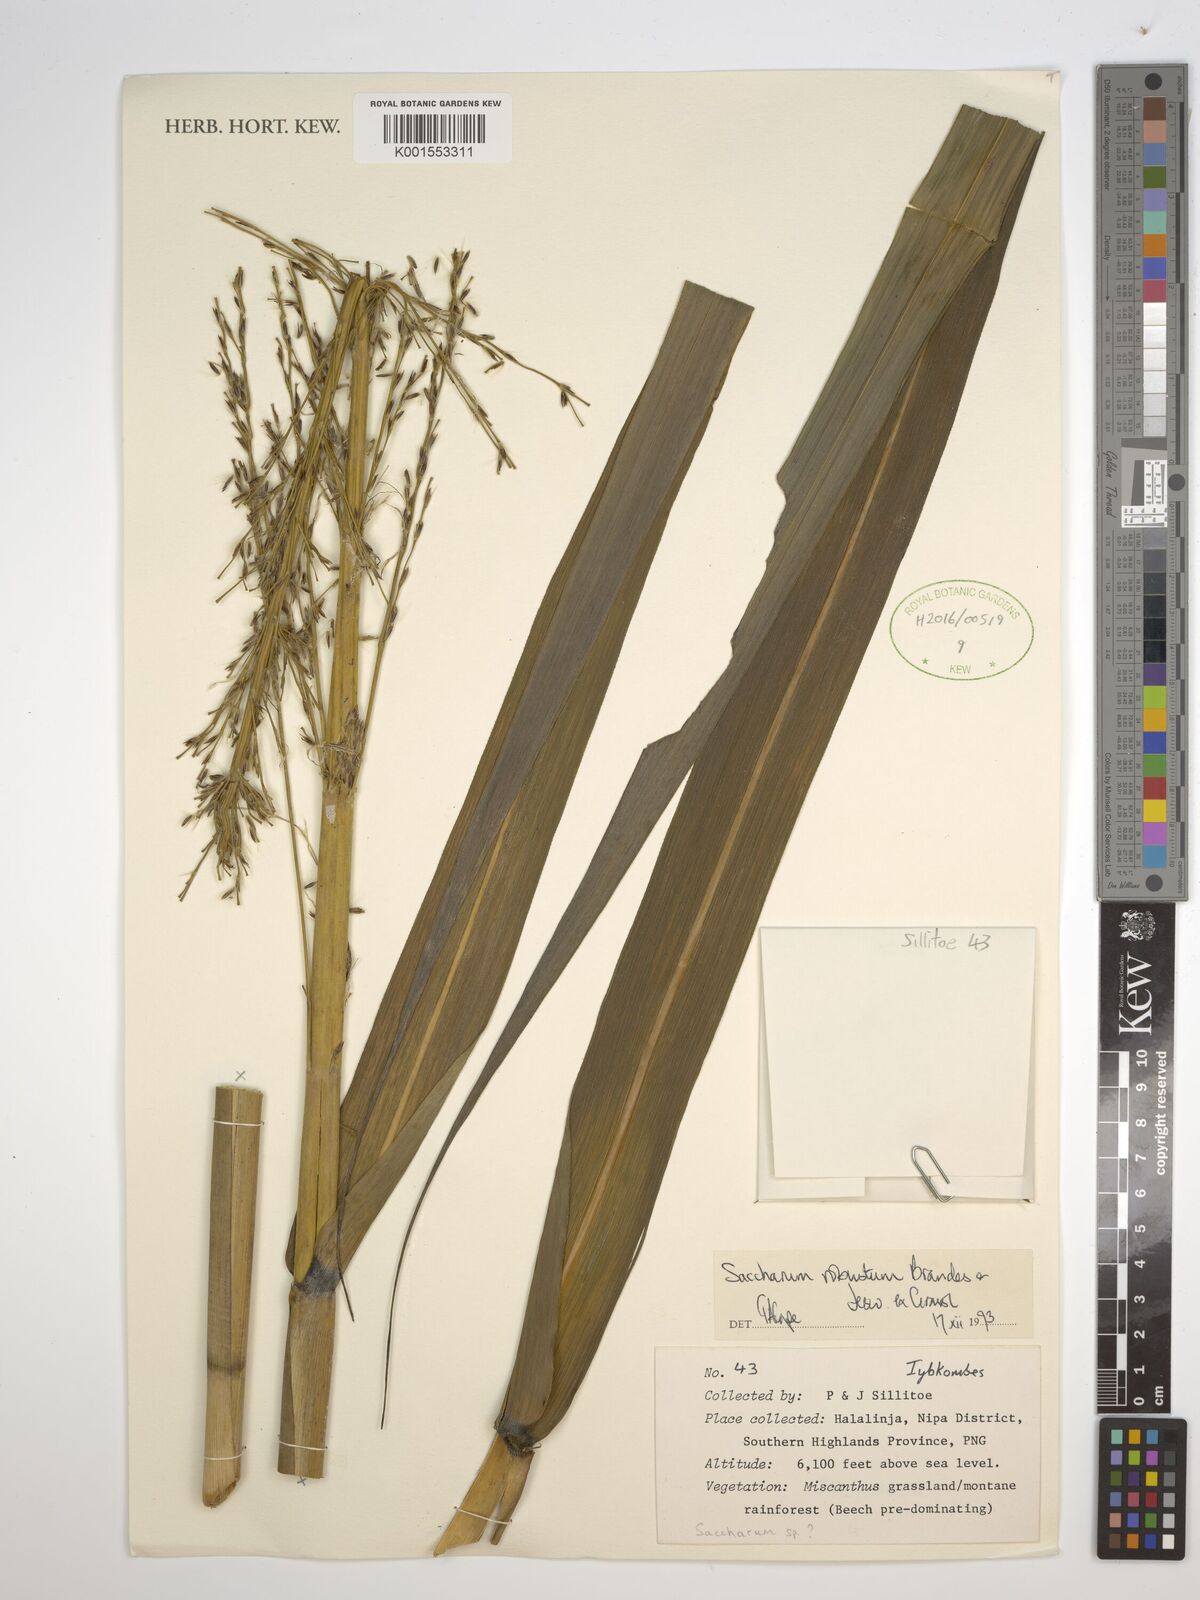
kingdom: Plantae
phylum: Tracheophyta
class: Liliopsida
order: Poales
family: Poaceae
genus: Saccharum
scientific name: Saccharum robustum
